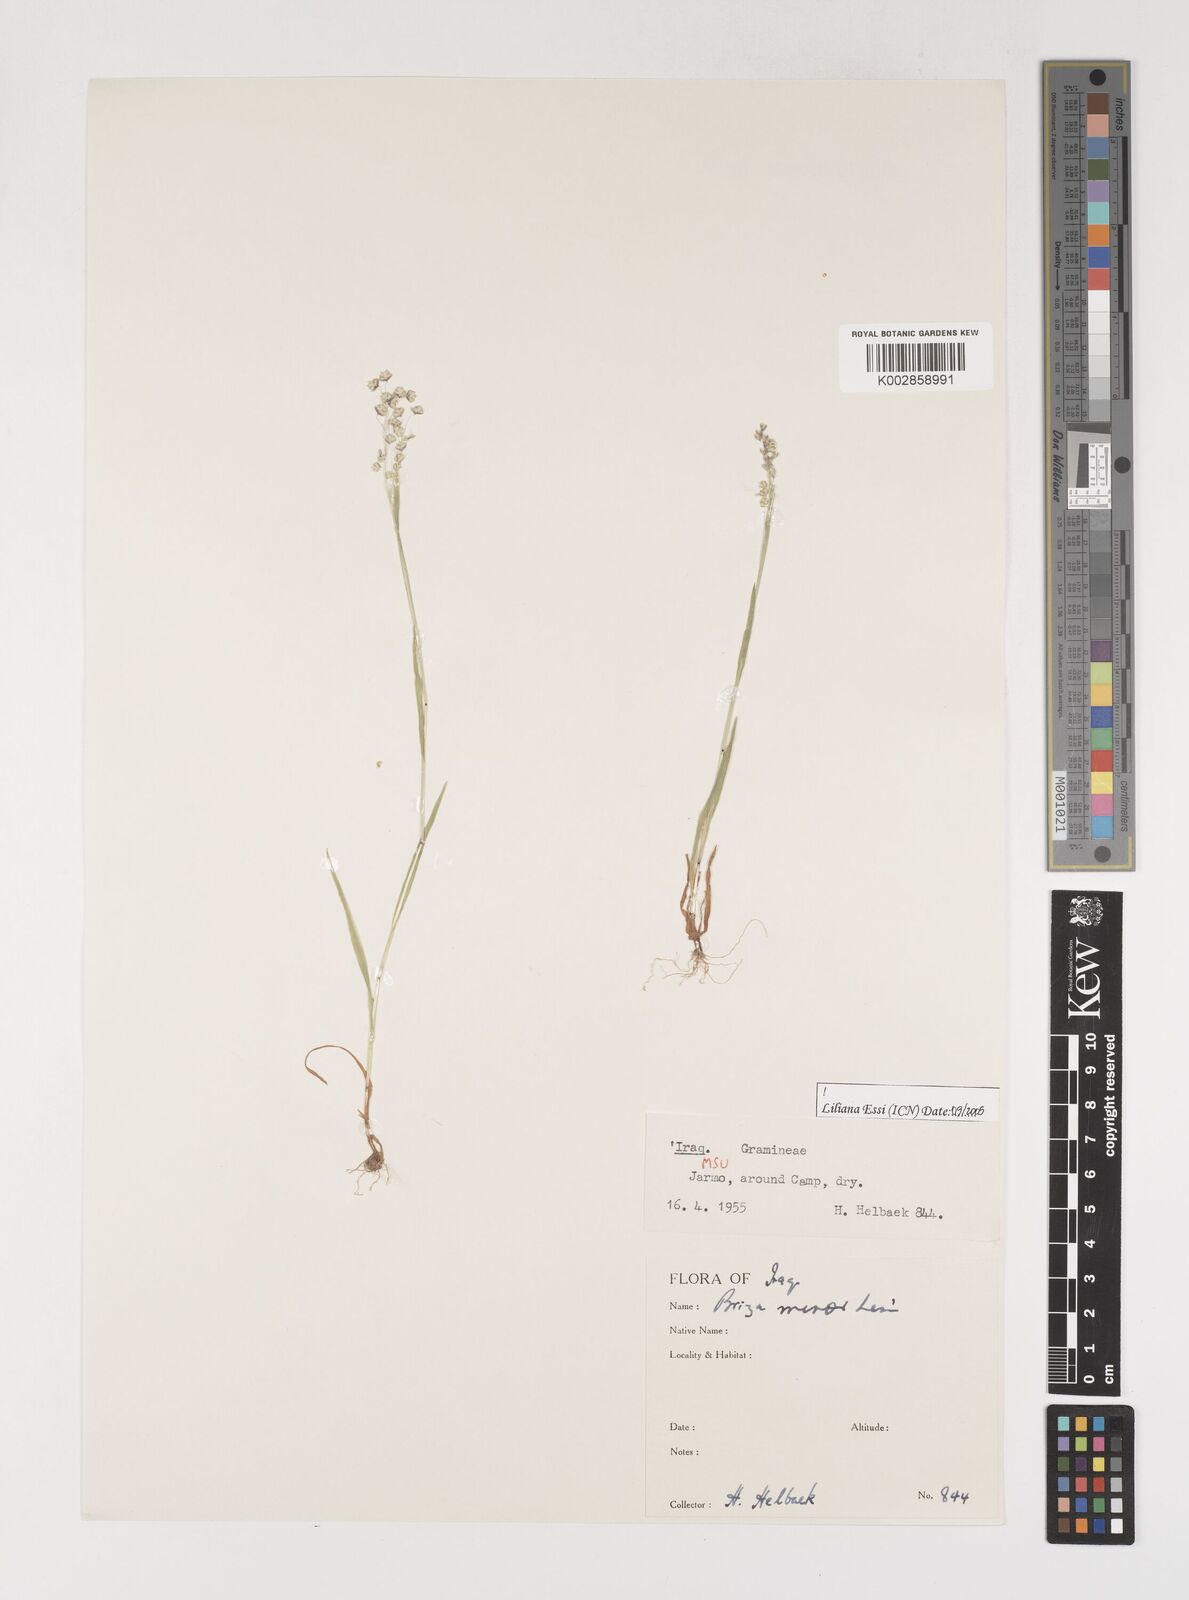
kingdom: Plantae
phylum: Tracheophyta
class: Liliopsida
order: Poales
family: Poaceae
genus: Briza
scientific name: Briza minor
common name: Lesser quaking-grass
